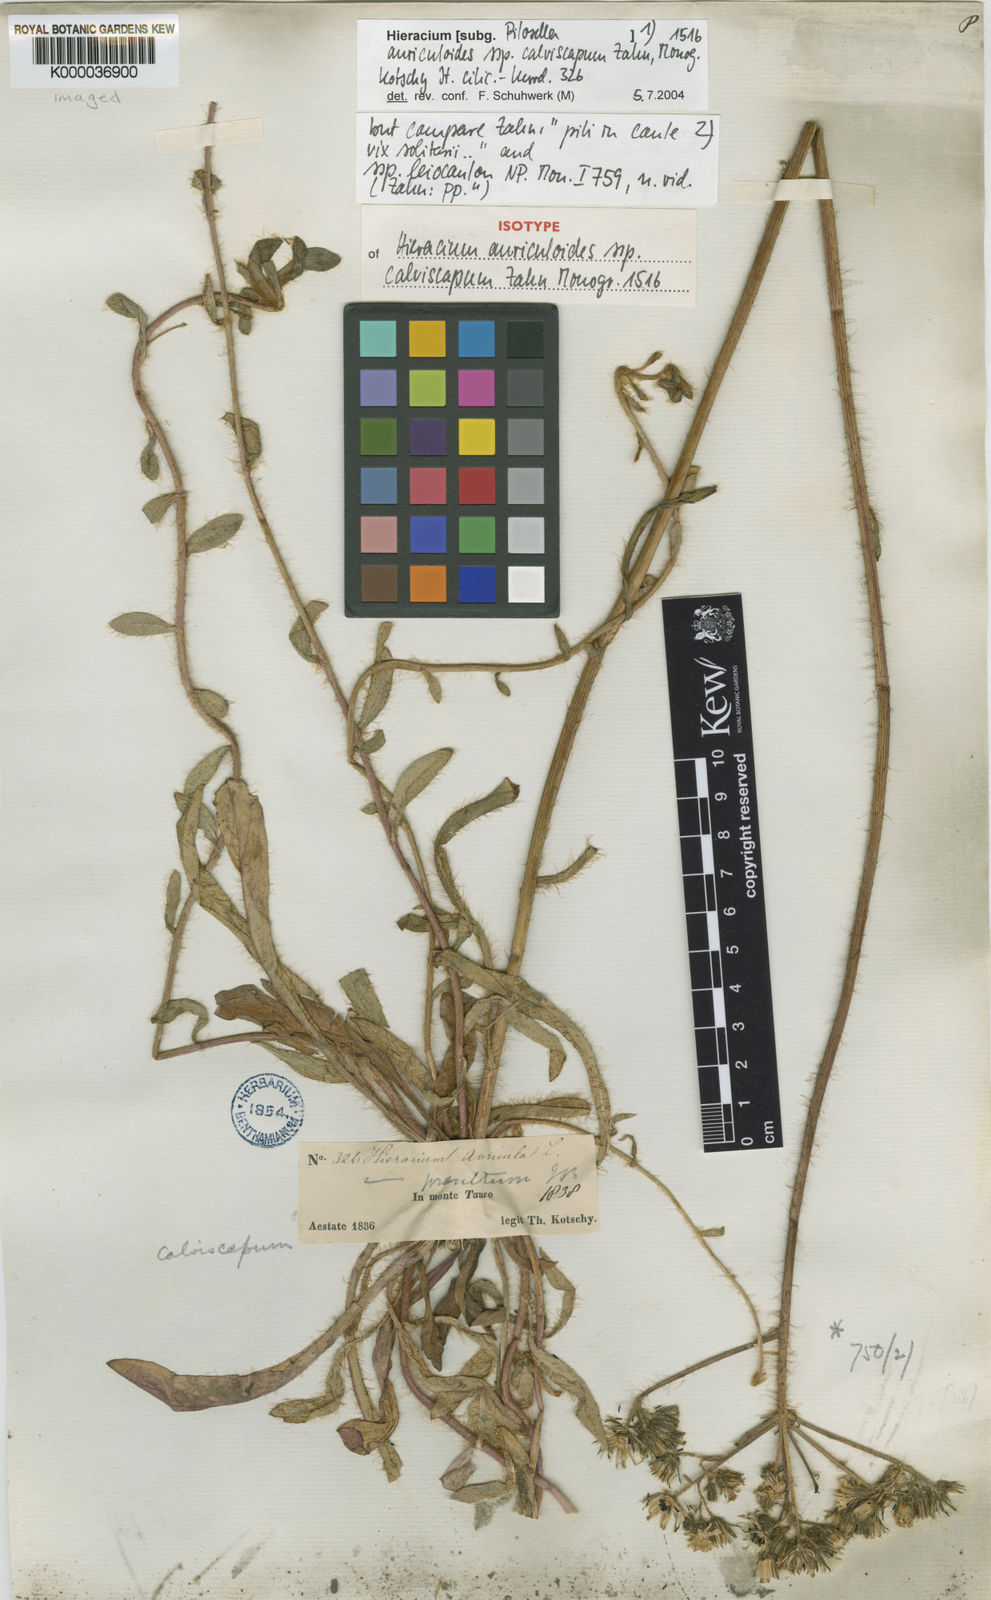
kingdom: Plantae
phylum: Tracheophyta
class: Magnoliopsida
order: Asterales
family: Asteraceae
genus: Hieracium
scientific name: Hieracium
